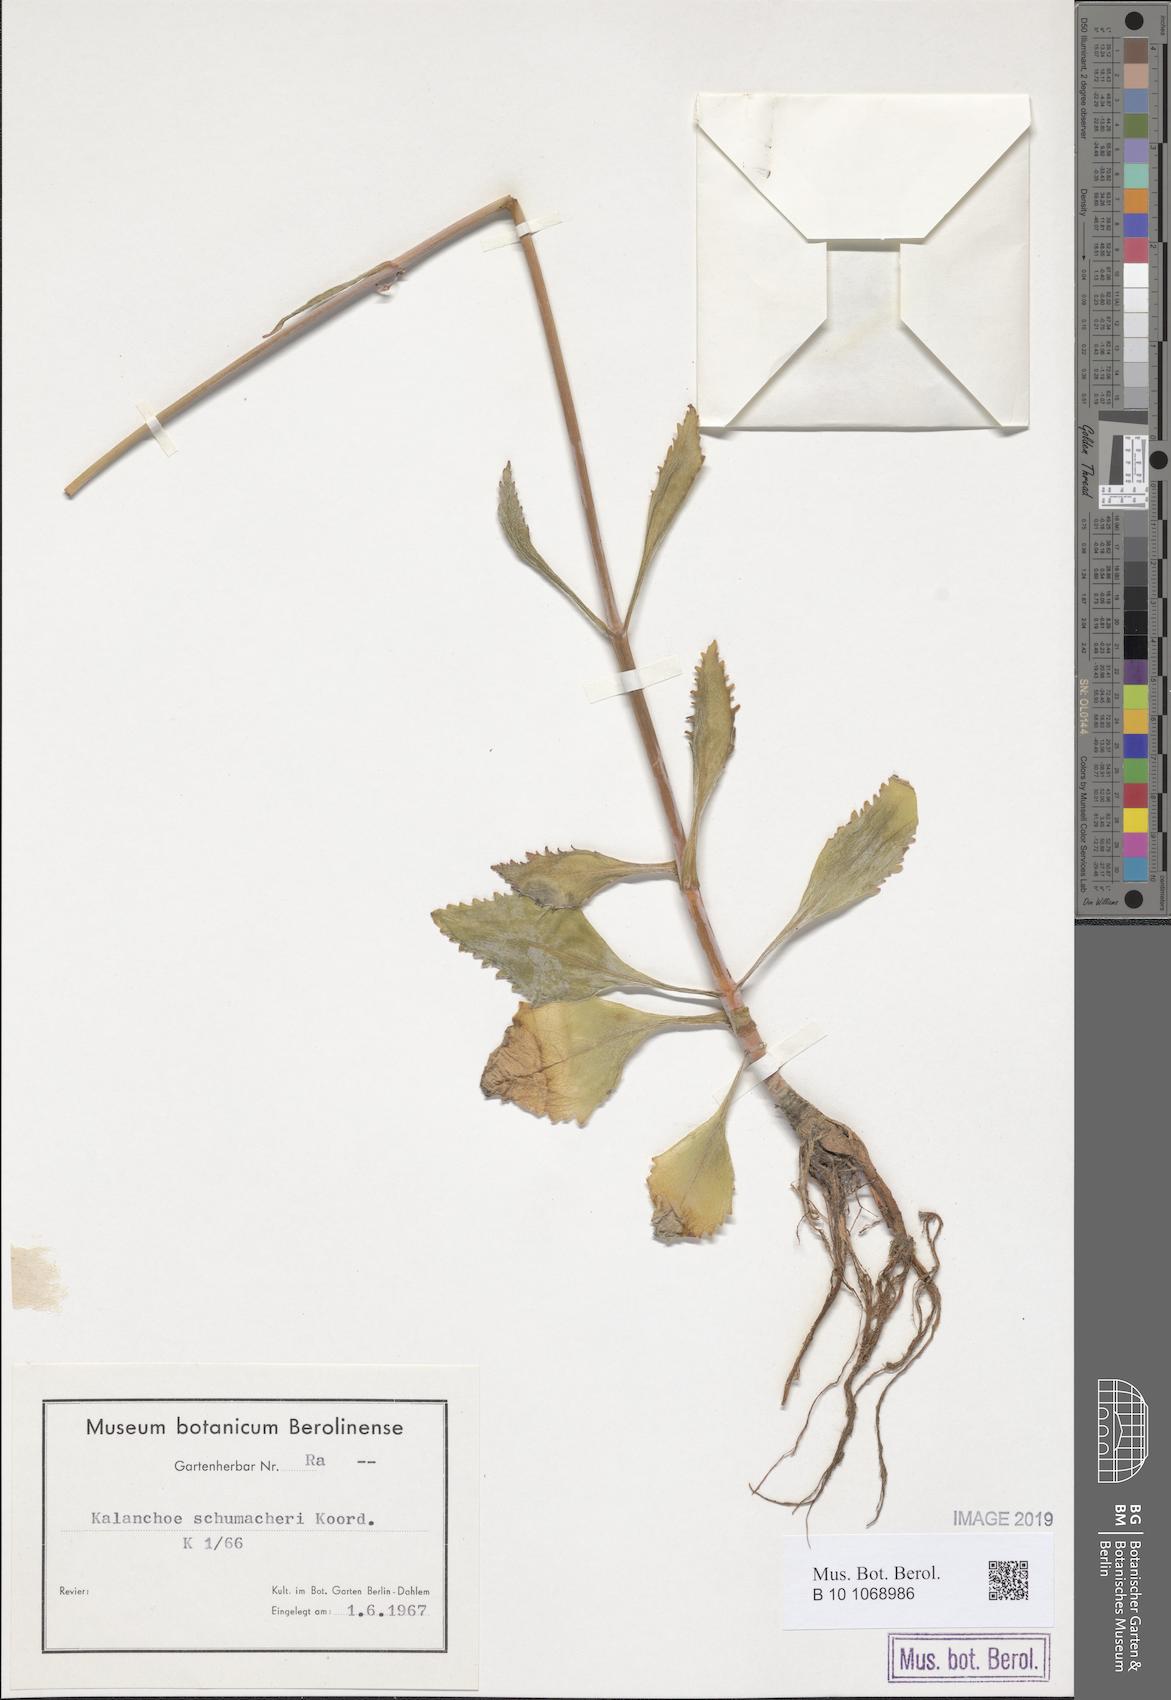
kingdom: Plantae
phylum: Tracheophyta
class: Magnoliopsida
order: Saxifragales
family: Crassulaceae
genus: Kalanchoe
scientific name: Kalanchoe integra
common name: Neverdie
